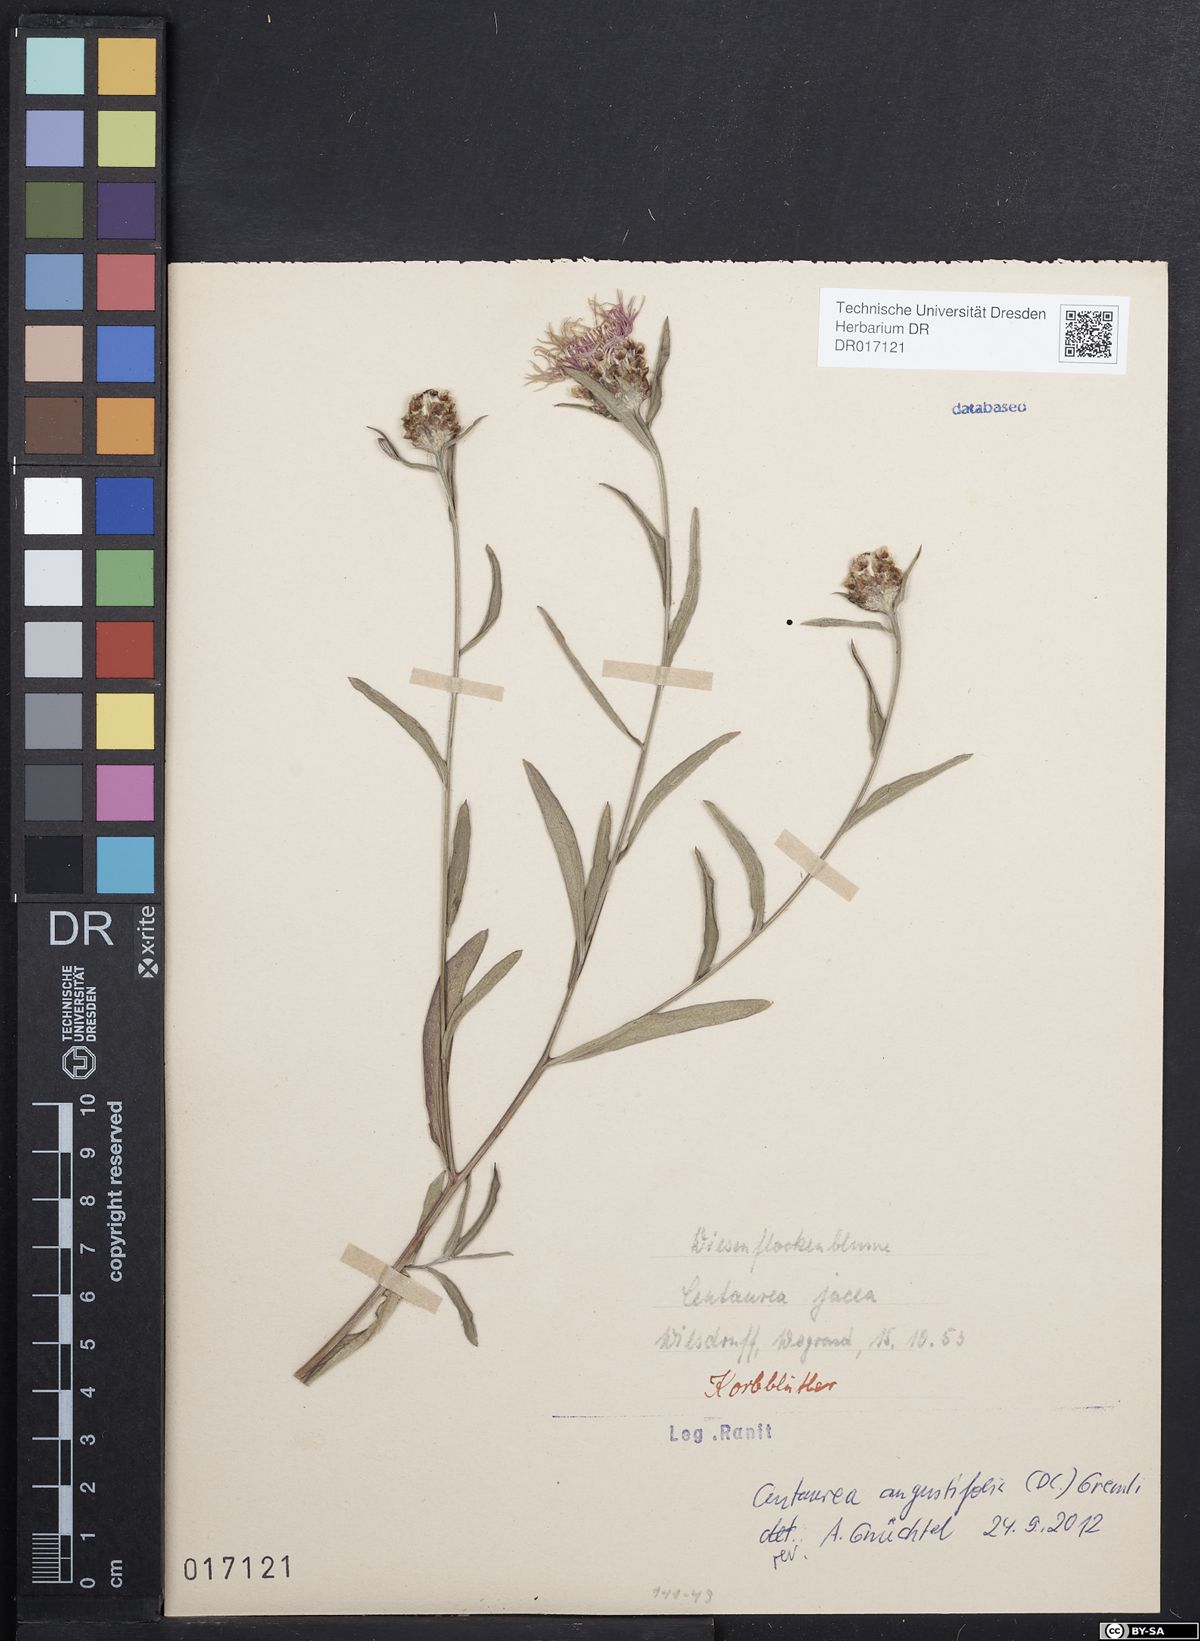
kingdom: Plantae
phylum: Tracheophyta
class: Magnoliopsida
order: Asterales
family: Asteraceae
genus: Centaurea
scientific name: Centaurea jacea
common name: Brown knapweed
